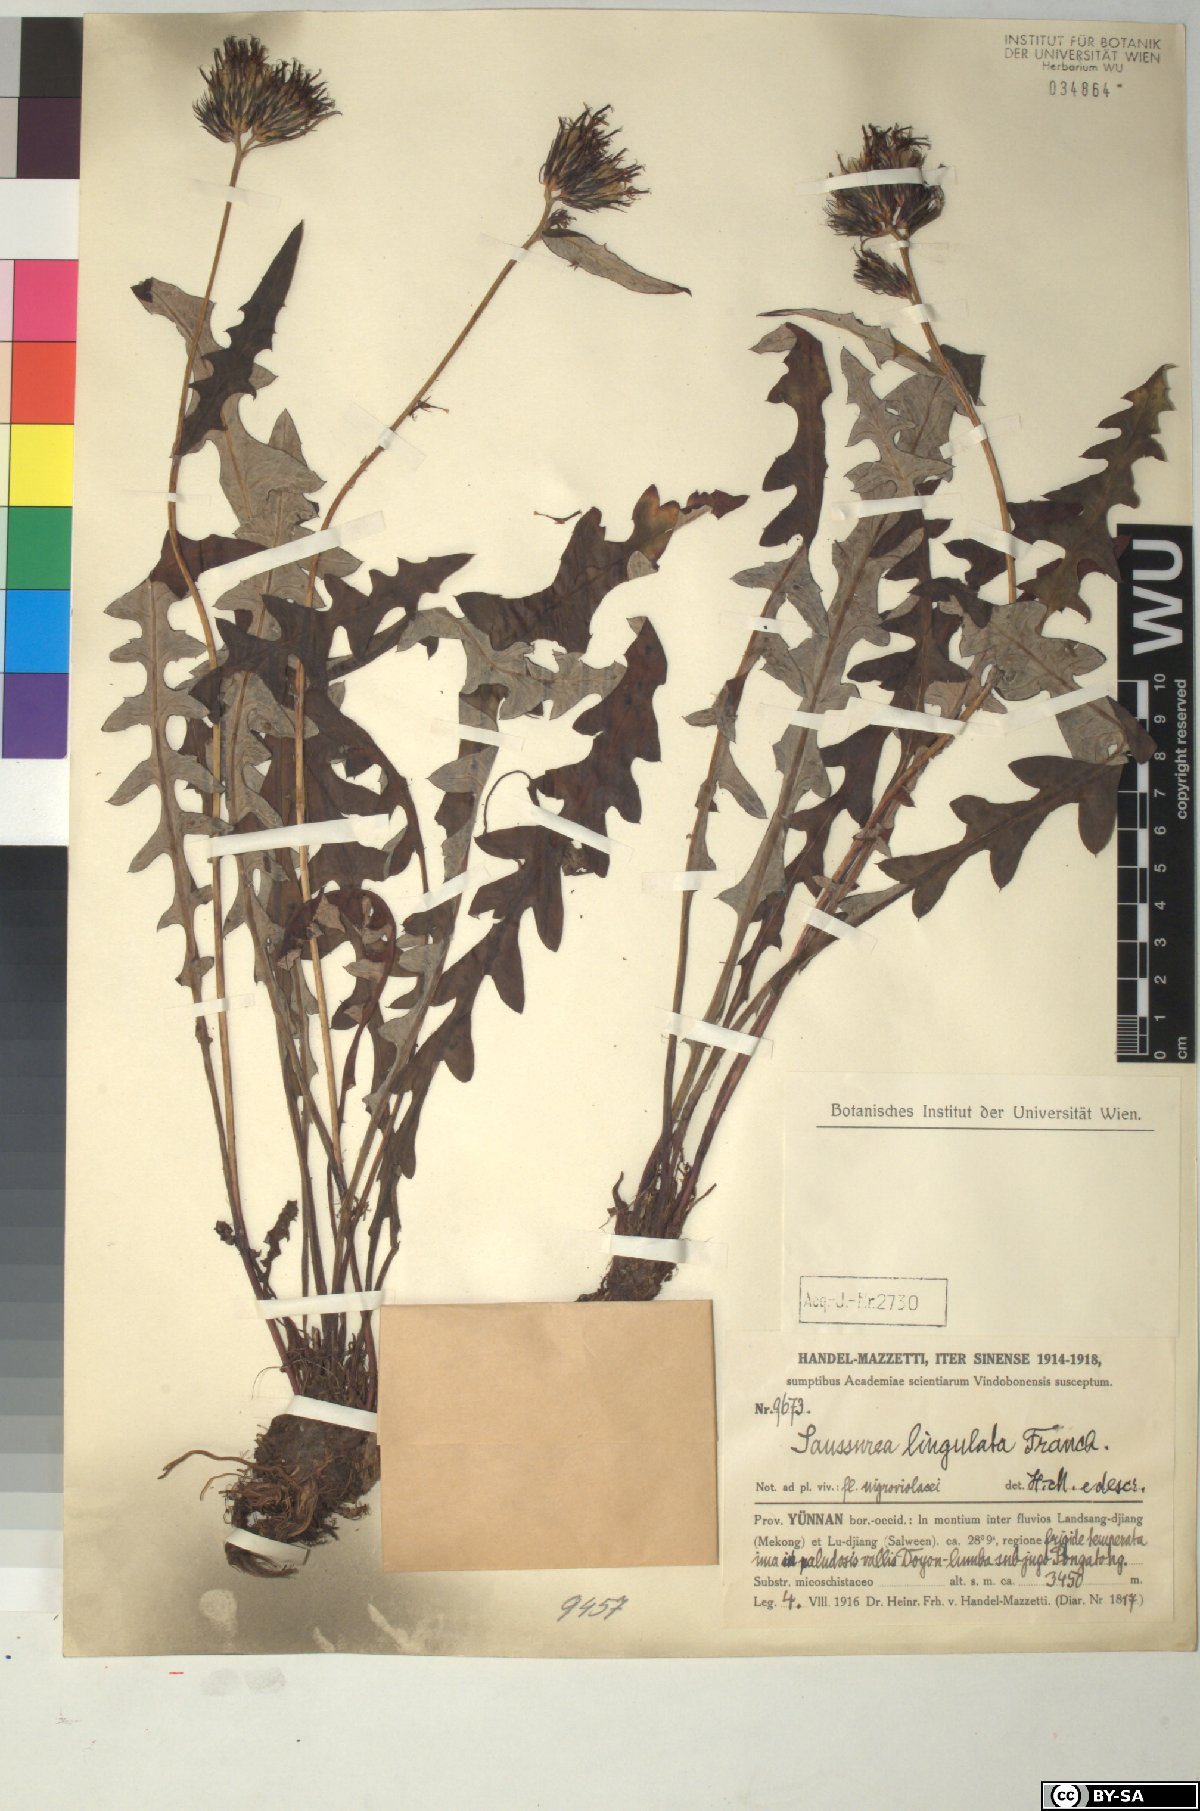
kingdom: Plantae
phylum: Tracheophyta
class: Magnoliopsida
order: Asterales
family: Asteraceae
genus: Saussurea
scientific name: Saussurea lingulata
